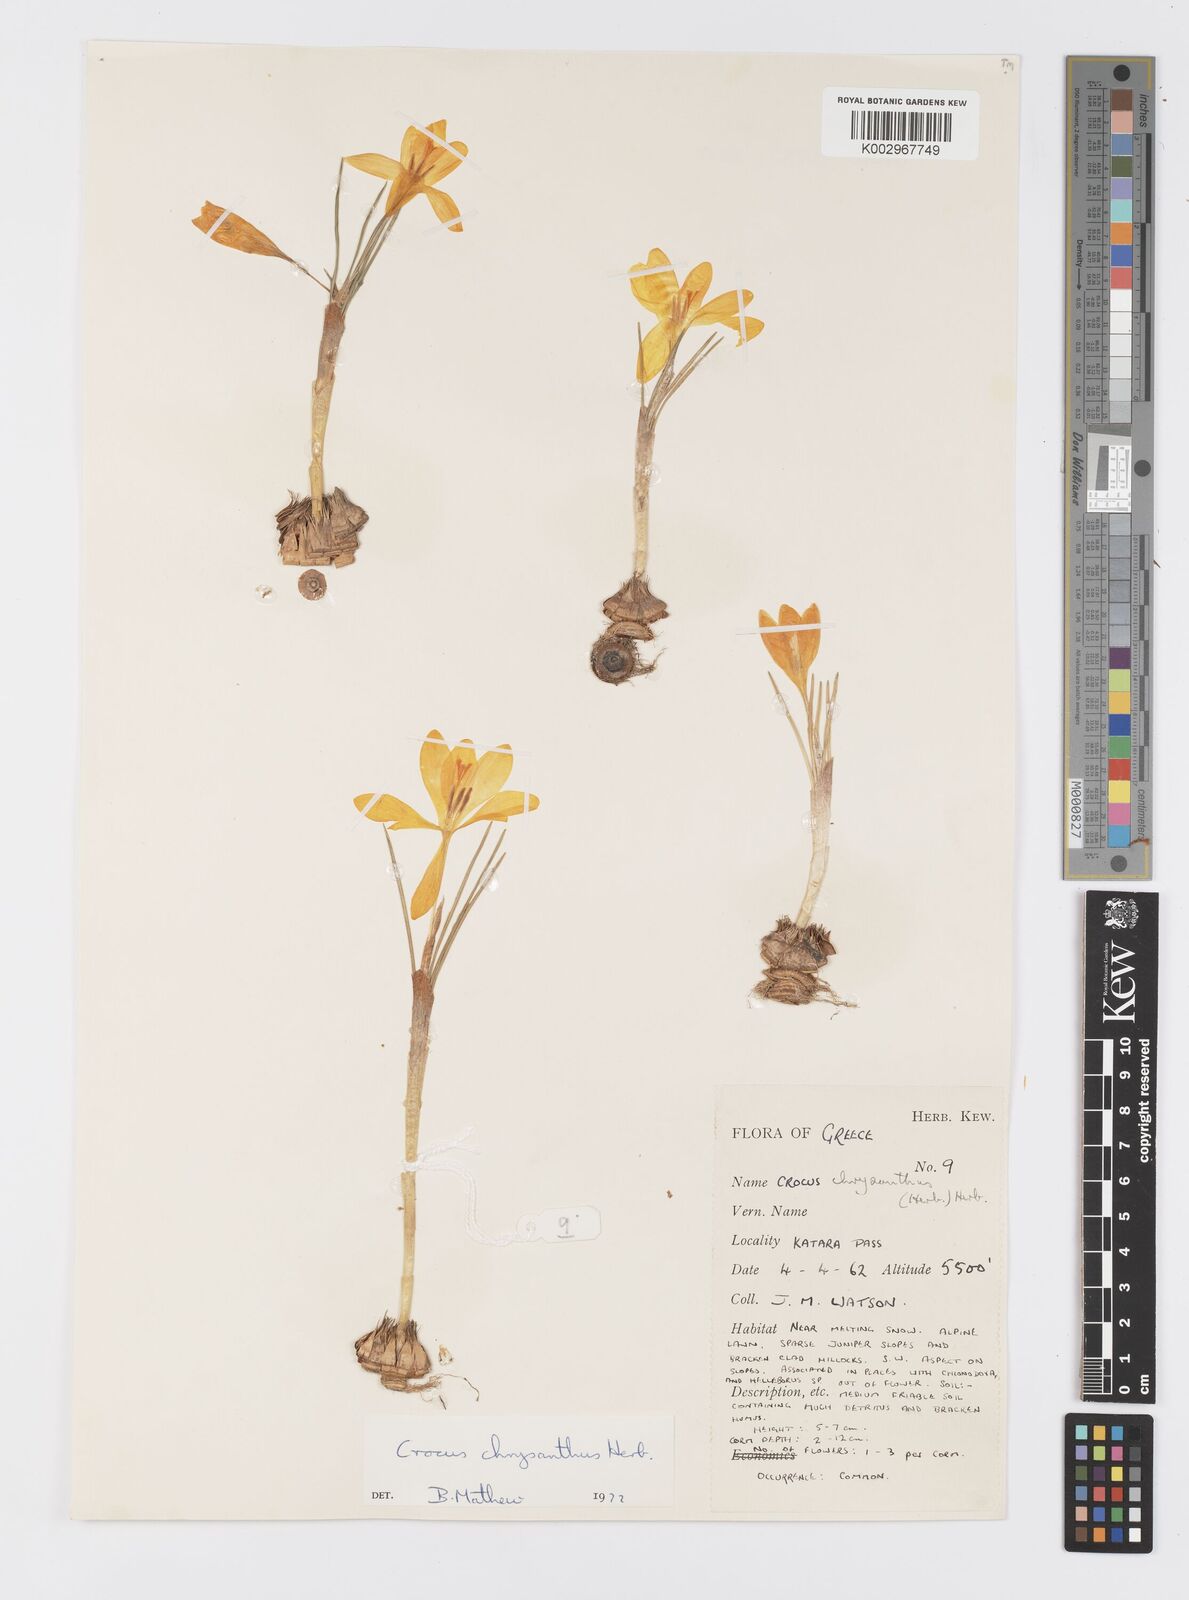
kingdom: Plantae
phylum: Tracheophyta
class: Liliopsida
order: Asparagales
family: Iridaceae
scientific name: Iridaceae
